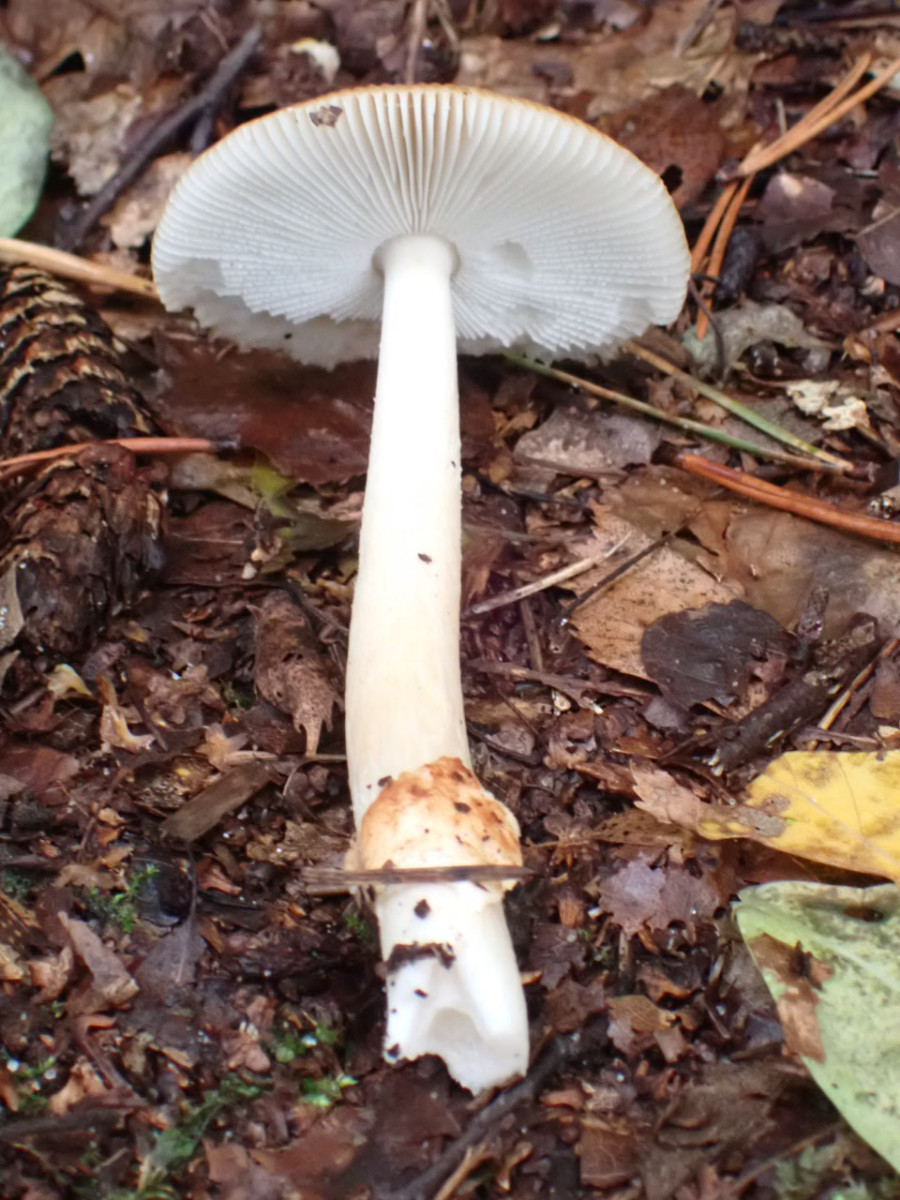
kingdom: Fungi
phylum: Basidiomycota
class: Agaricomycetes
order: Agaricales
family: Amanitaceae
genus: Amanita
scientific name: Amanita fulva
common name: brun kam-fluesvamp
